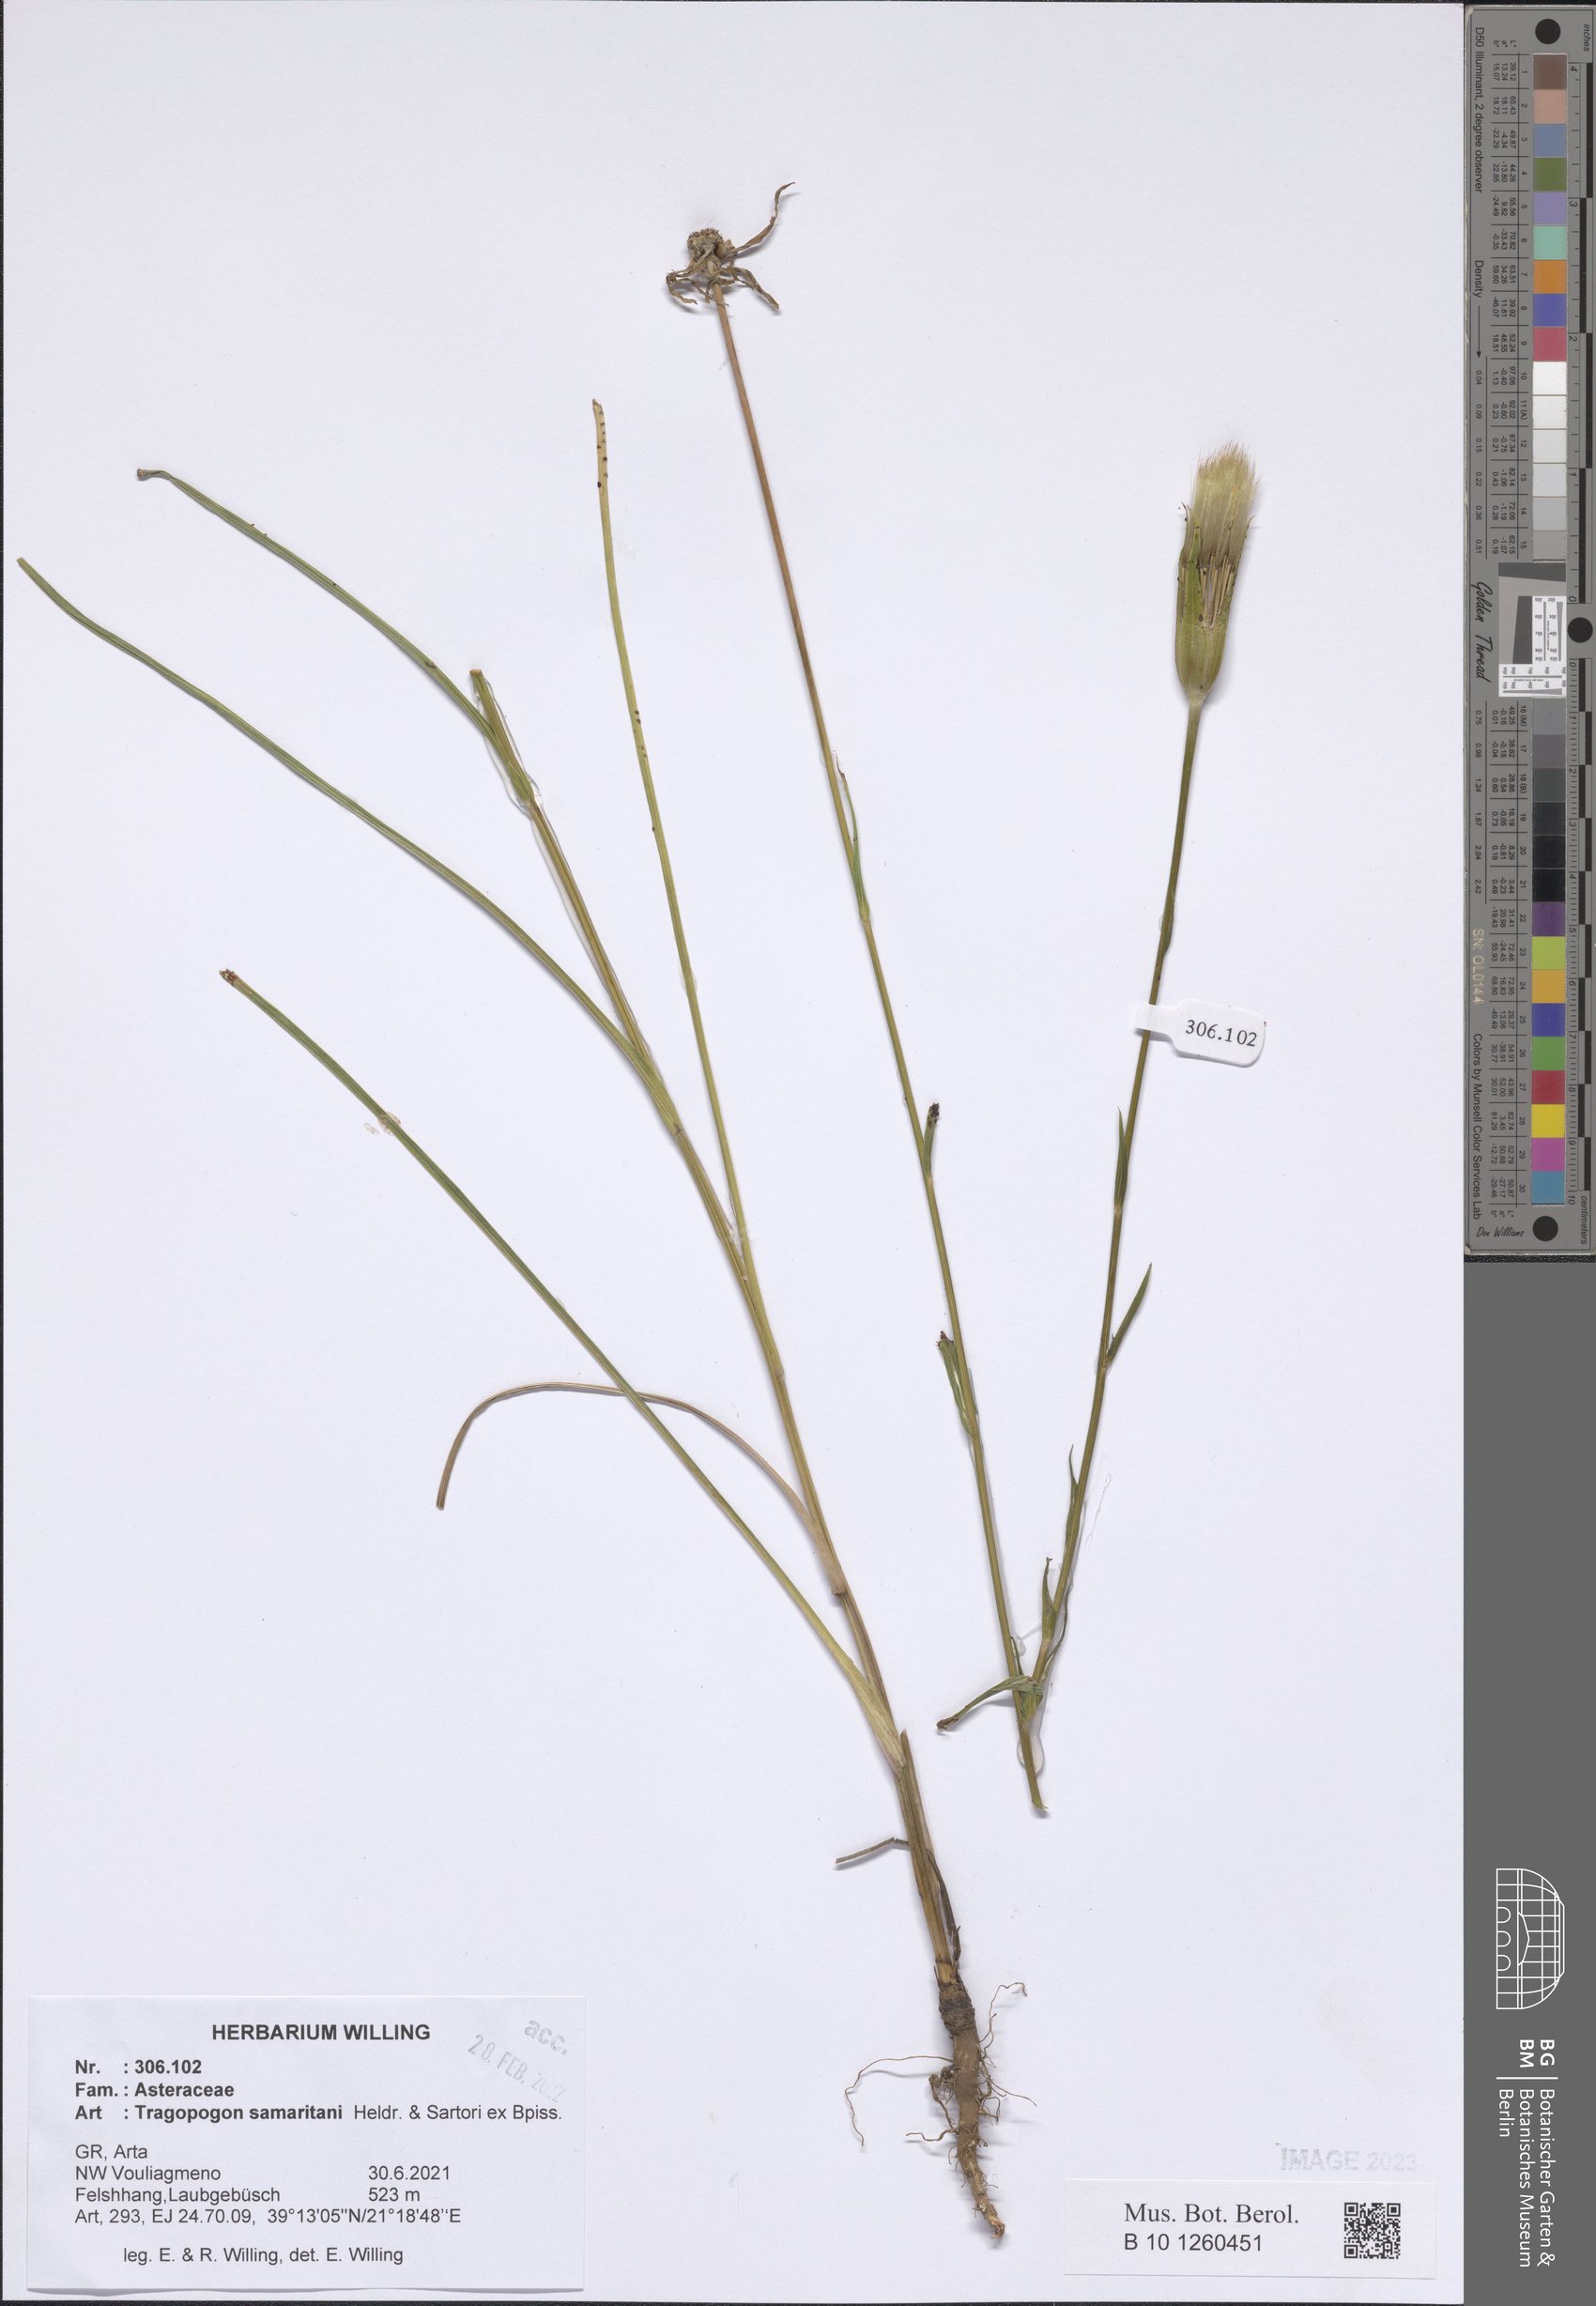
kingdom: Plantae
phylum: Tracheophyta
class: Magnoliopsida
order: Asterales
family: Asteraceae
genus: Tragopogon
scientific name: Tragopogon samaritani
